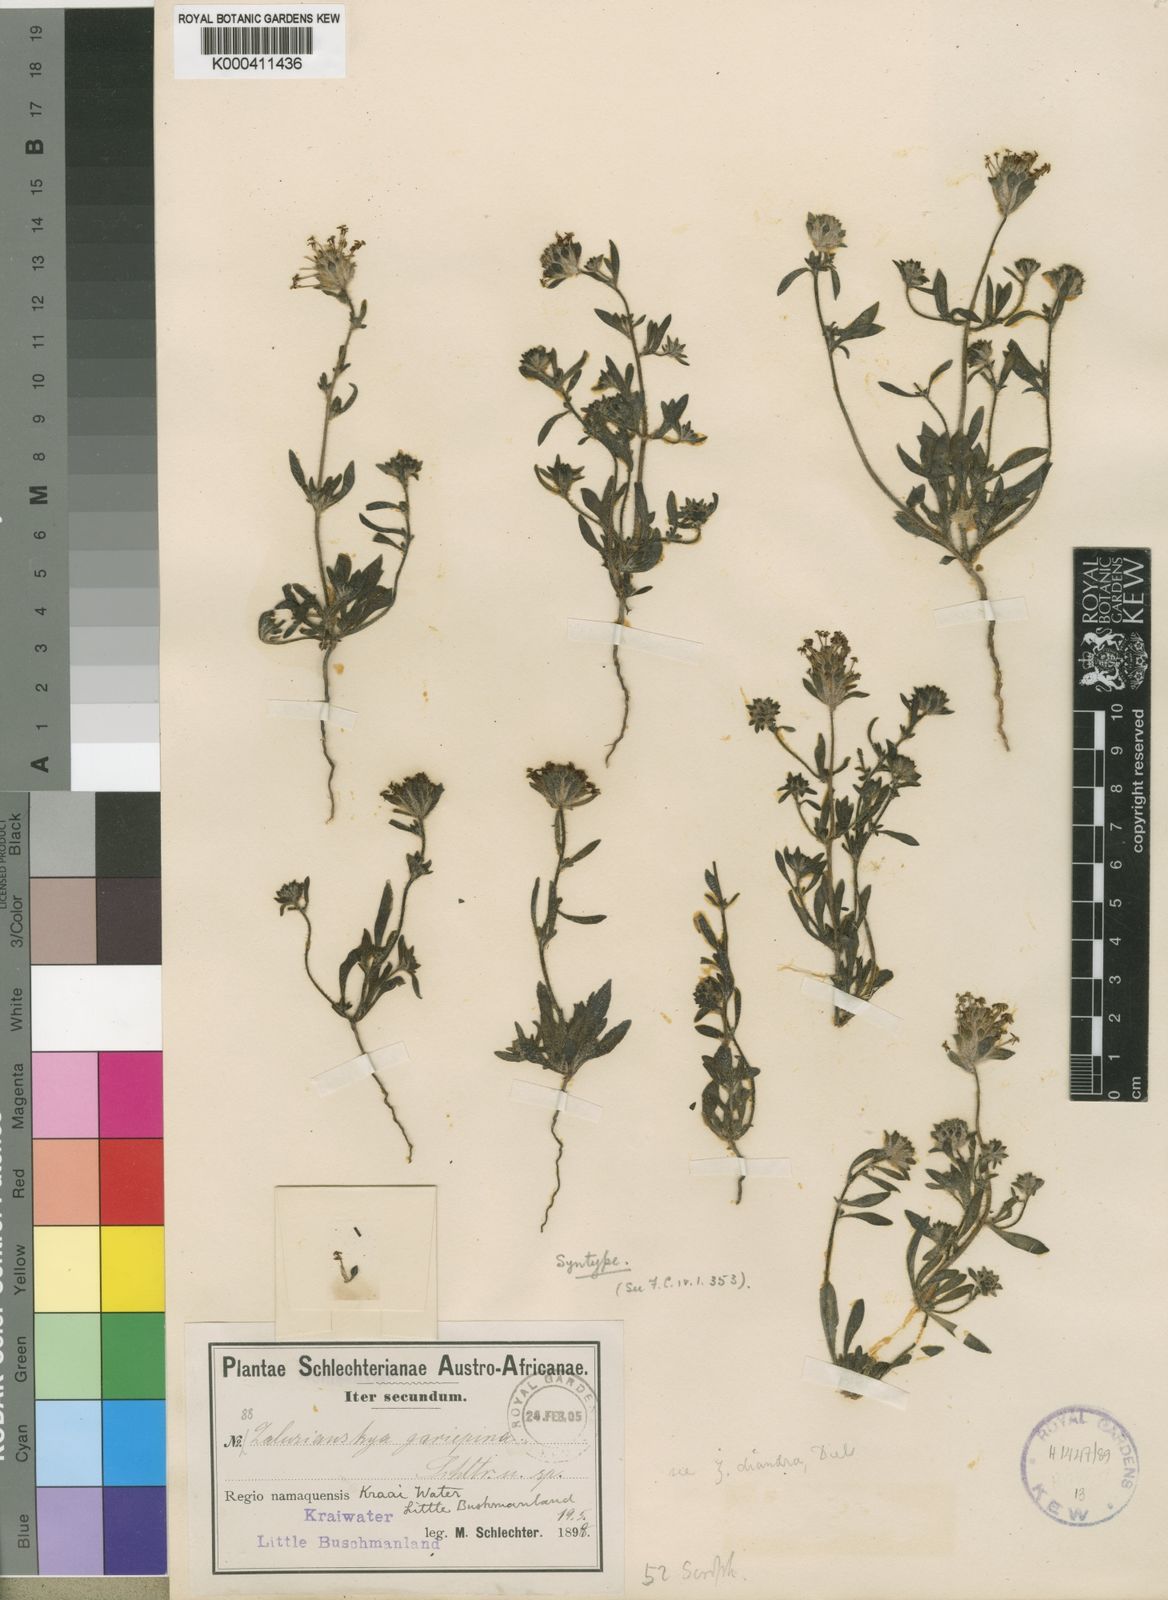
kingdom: Plantae
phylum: Tracheophyta
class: Magnoliopsida
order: Lamiales
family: Scrophulariaceae
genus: Zaluzianskya
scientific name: Zaluzianskya diandra
